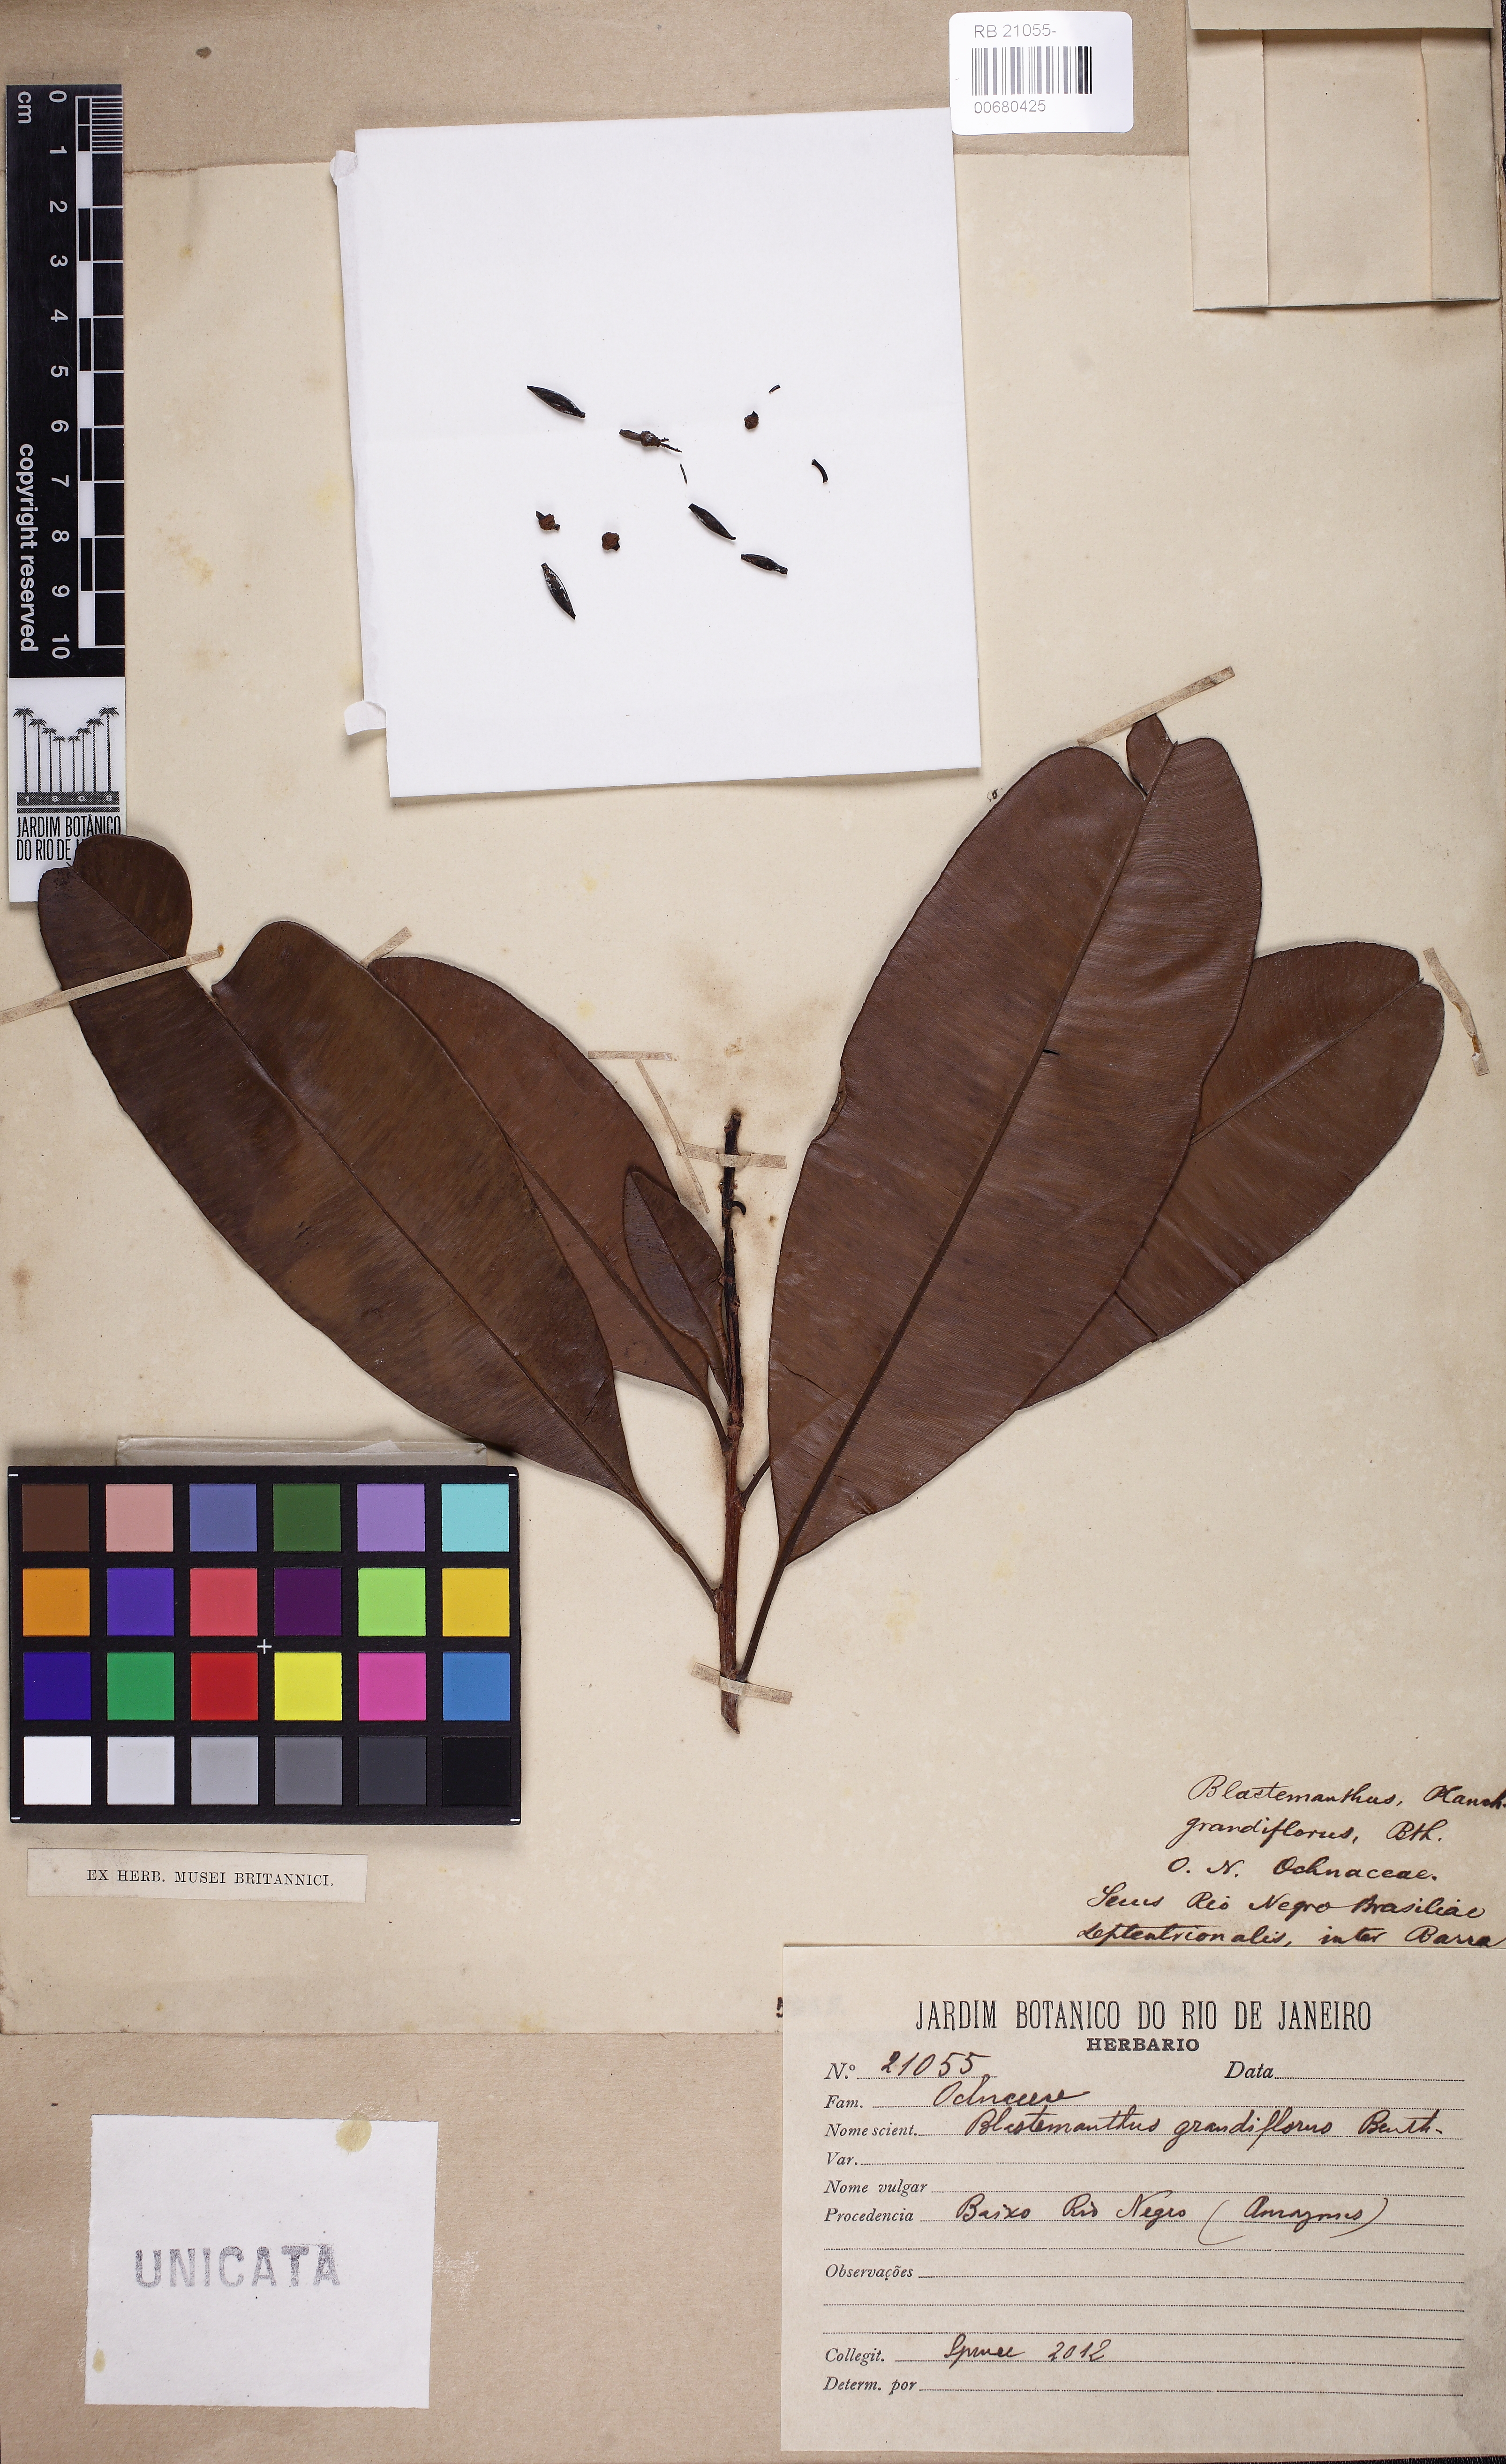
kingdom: Plantae
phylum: Tracheophyta
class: Magnoliopsida
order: Malpighiales
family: Ochnaceae
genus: Blastemanthus
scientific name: Blastemanthus grandiflorus
